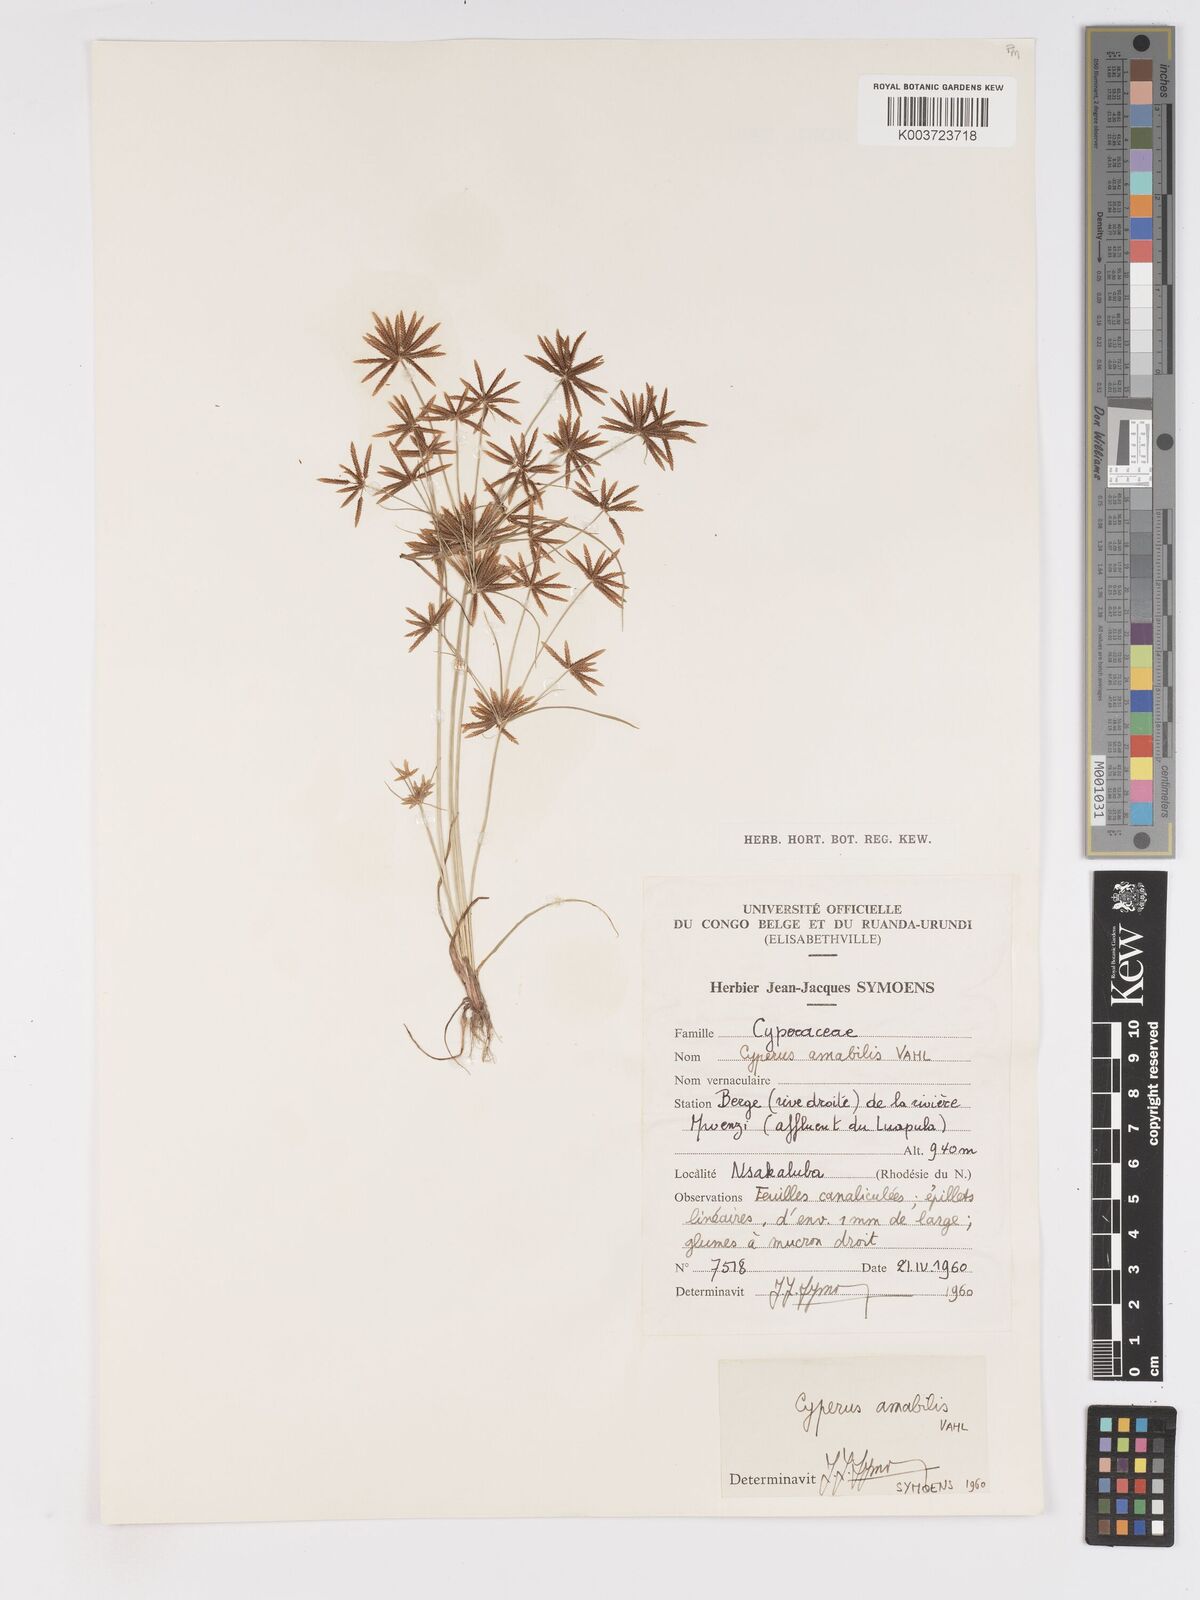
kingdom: Plantae
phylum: Tracheophyta
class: Liliopsida
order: Poales
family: Cyperaceae
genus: Cyperus
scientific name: Cyperus amabilis
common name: Foothill flat sedge
